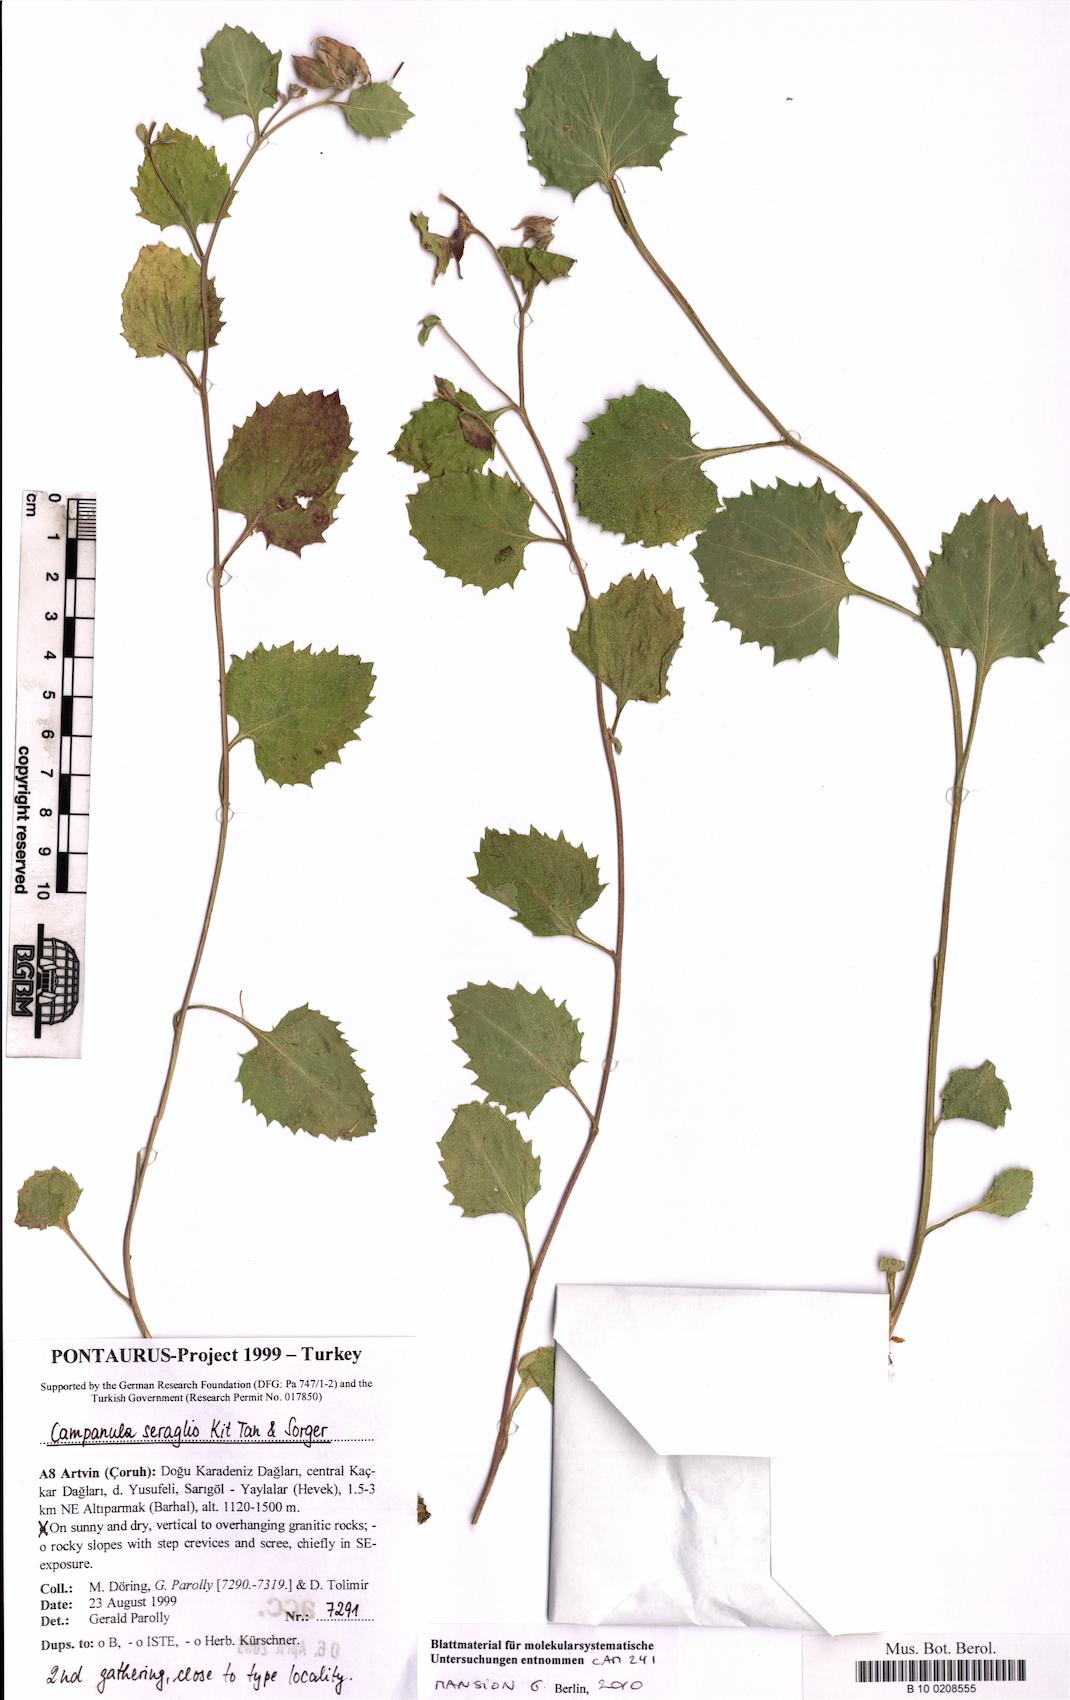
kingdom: Plantae
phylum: Tracheophyta
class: Magnoliopsida
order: Asterales
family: Campanulaceae
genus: Campanula
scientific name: Campanula seraglio
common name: Serail bellflower
